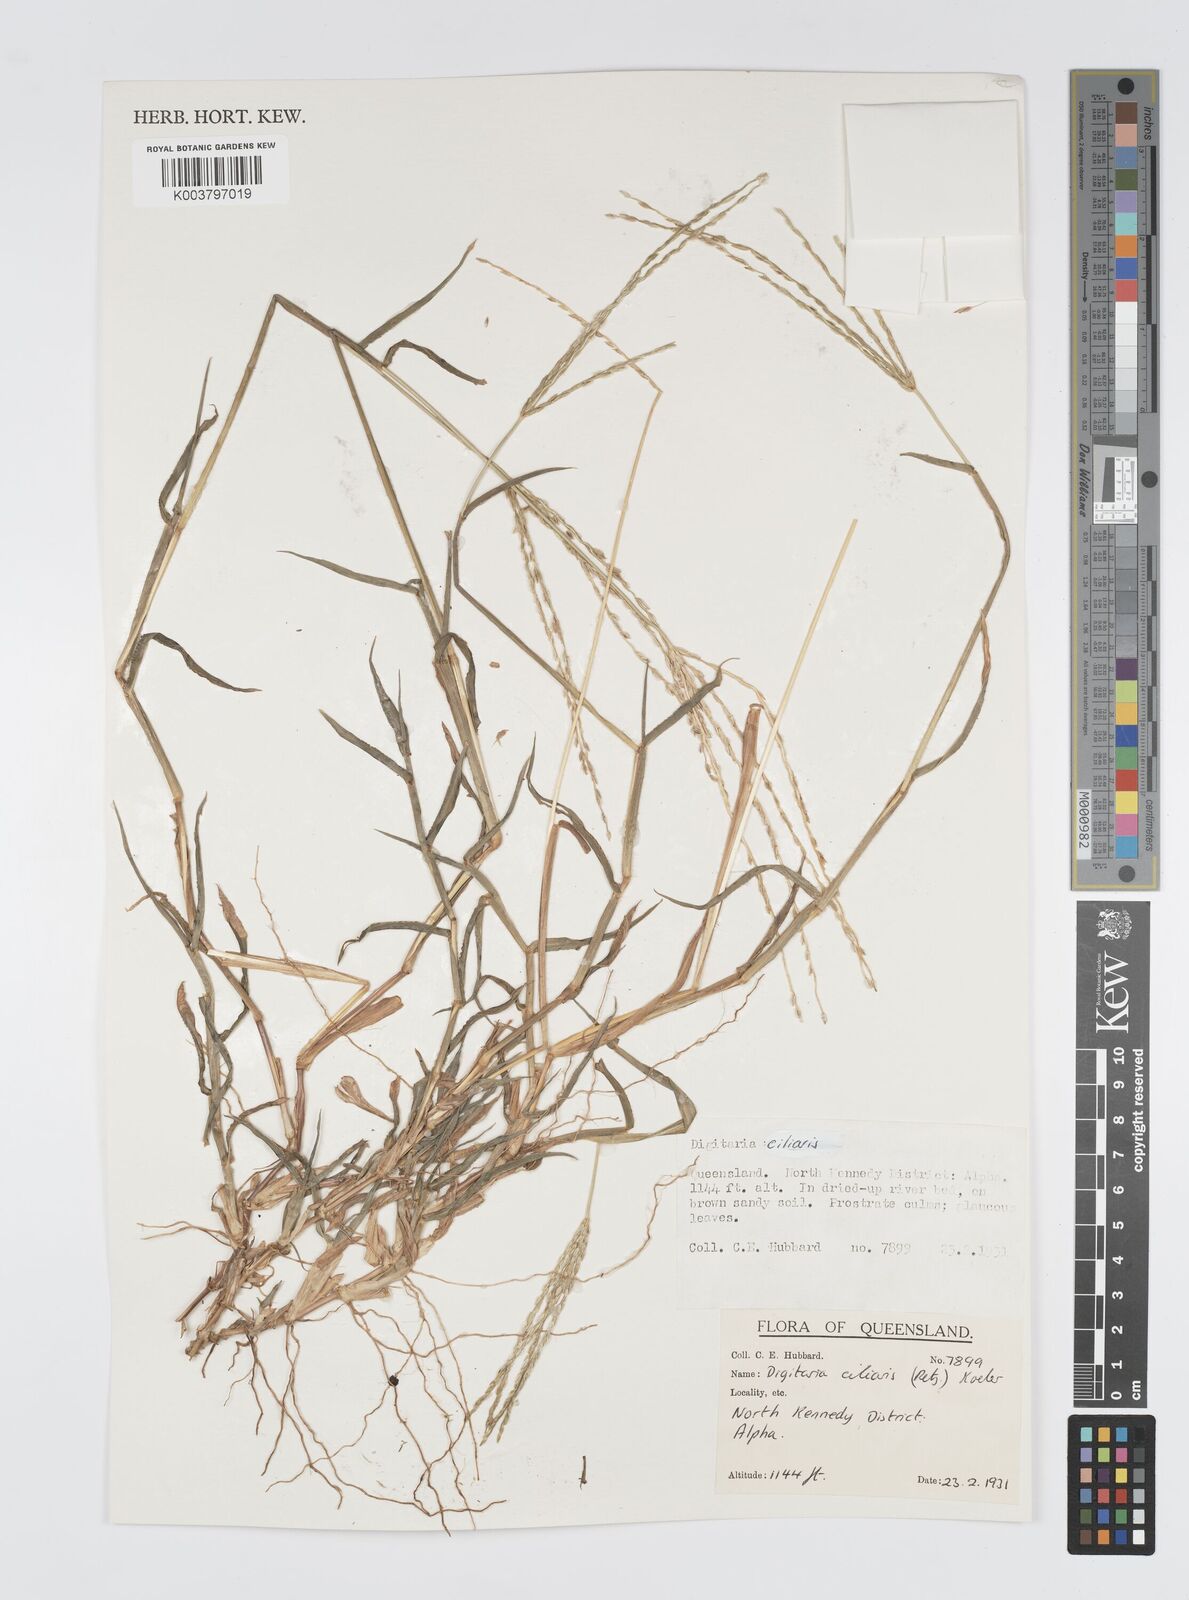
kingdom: Plantae
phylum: Tracheophyta
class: Liliopsida
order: Poales
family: Poaceae
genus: Digitaria
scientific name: Digitaria ciliaris
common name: Tropical finger-grass
